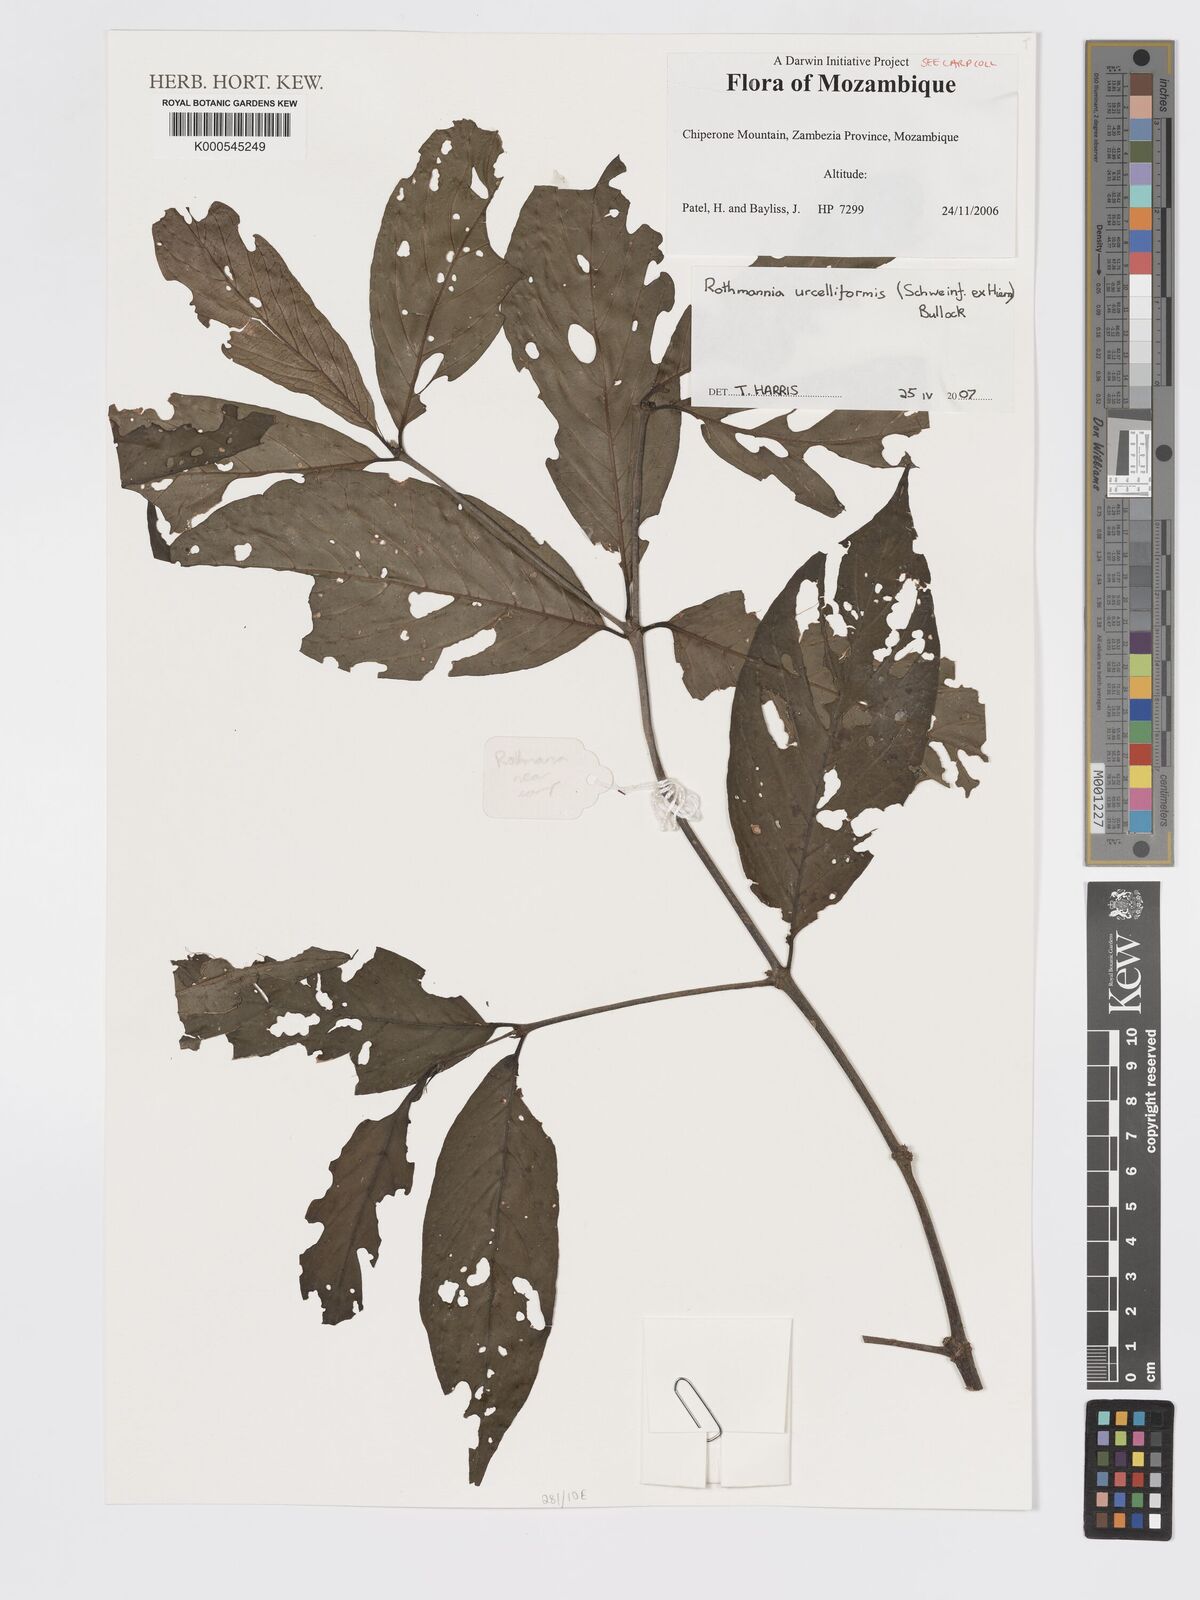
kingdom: Plantae
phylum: Tracheophyta
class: Magnoliopsida
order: Gentianales
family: Rubiaceae
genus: Rothmannia
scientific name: Rothmannia
